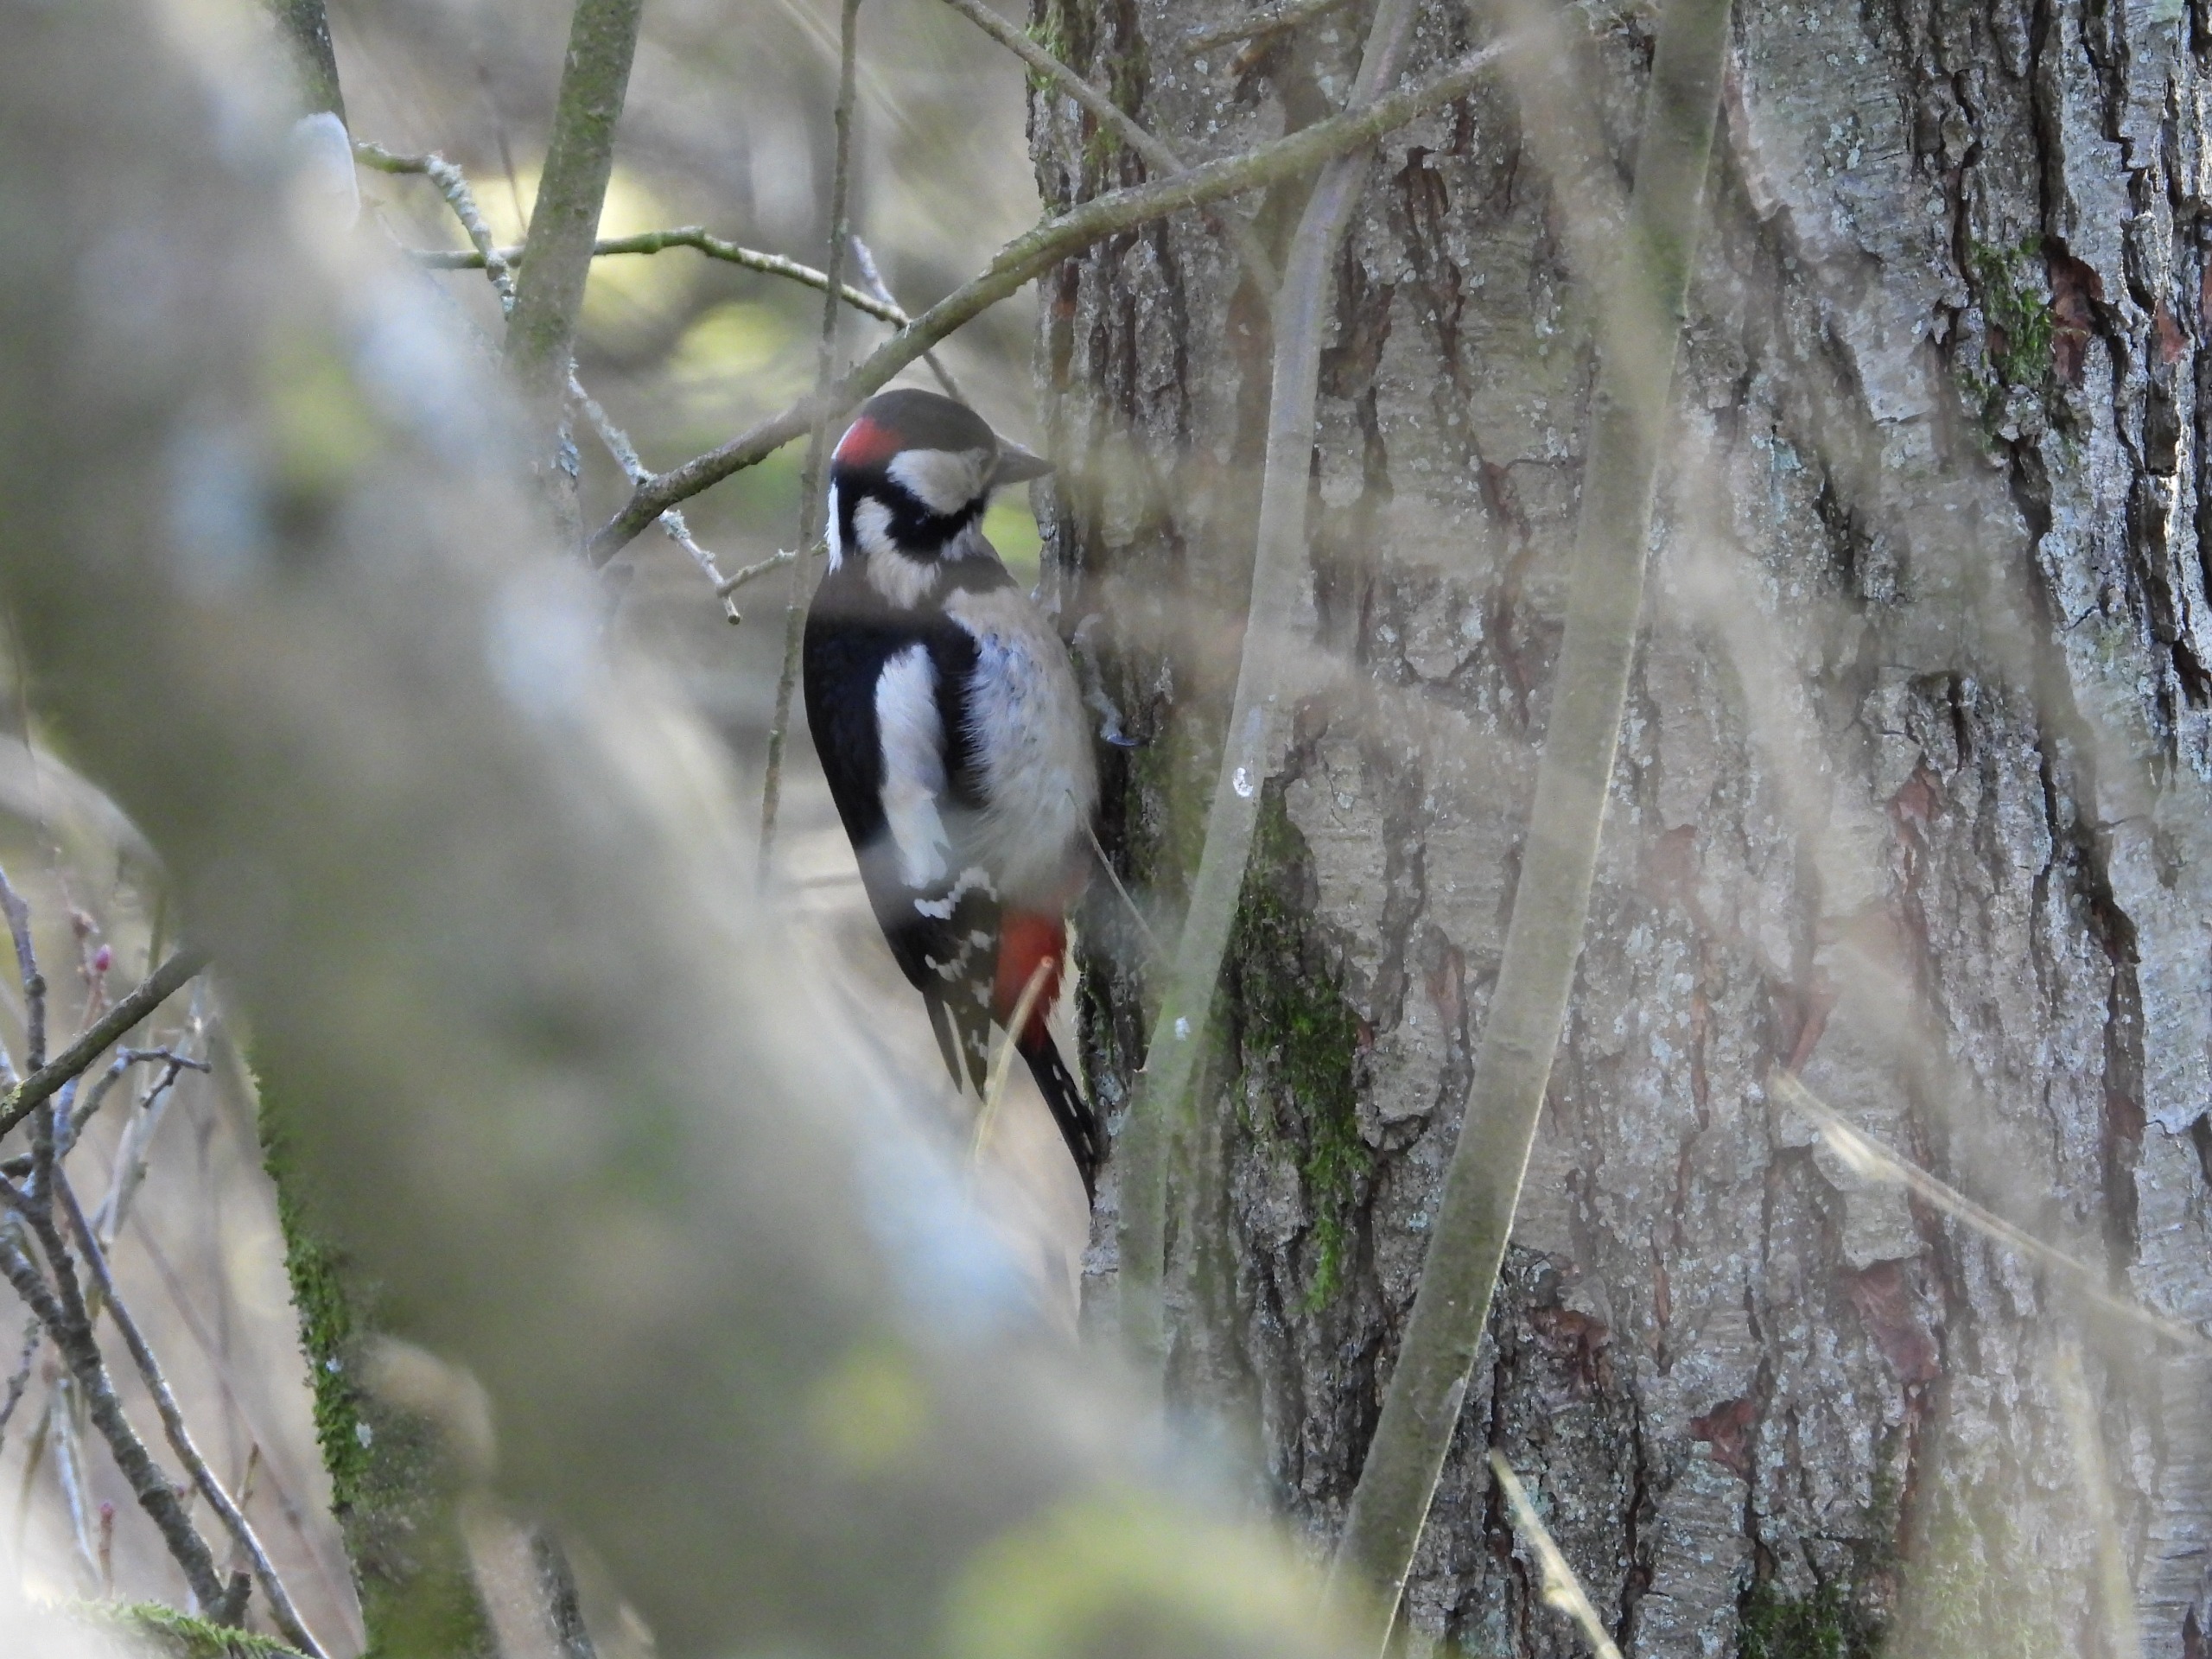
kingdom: Animalia
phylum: Chordata
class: Aves
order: Piciformes
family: Picidae
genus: Dendrocopos
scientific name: Dendrocopos major
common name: Stor flagspætte
